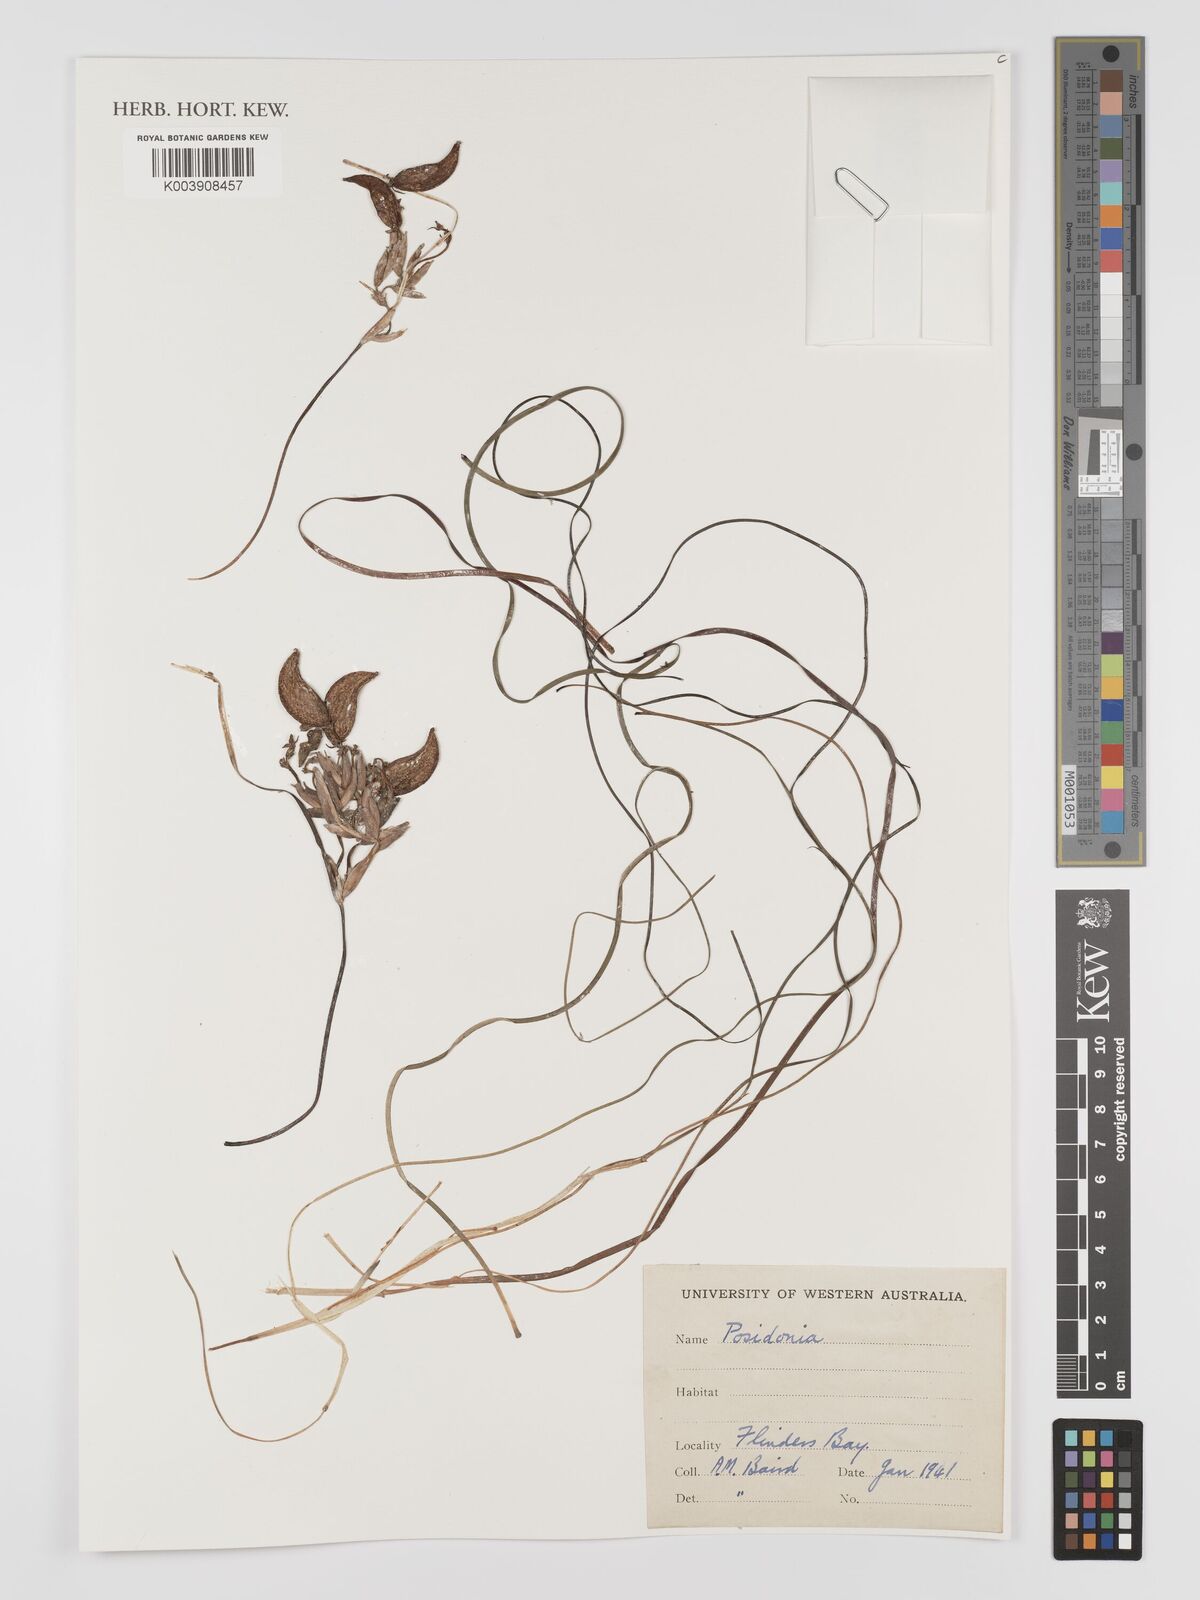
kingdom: Plantae
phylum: Tracheophyta
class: Liliopsida
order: Alismatales
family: Posidoniaceae
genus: Posidonia
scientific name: Posidonia
